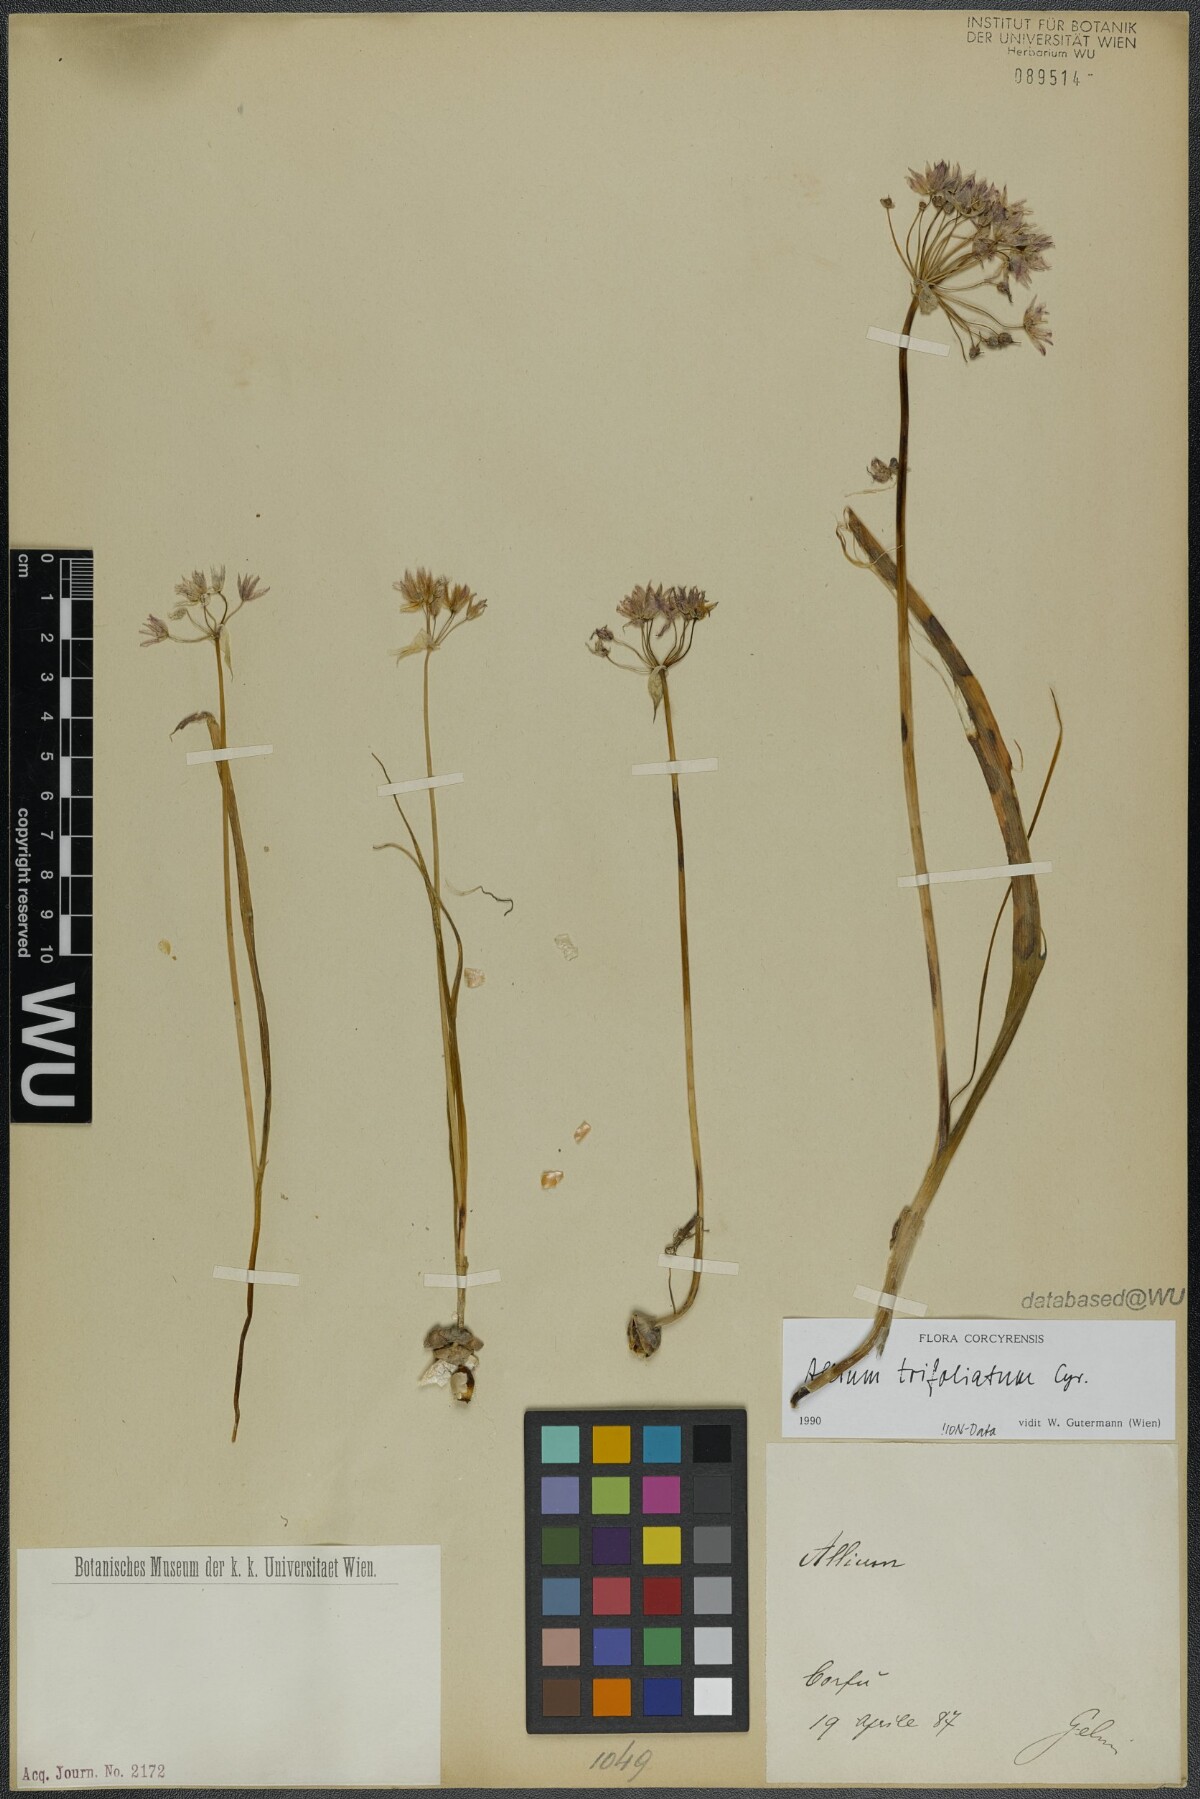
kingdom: Plantae
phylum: Tracheophyta
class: Liliopsida
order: Asparagales
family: Amaryllidaceae
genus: Allium
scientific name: Allium trifoliatum
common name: Pink garlic
